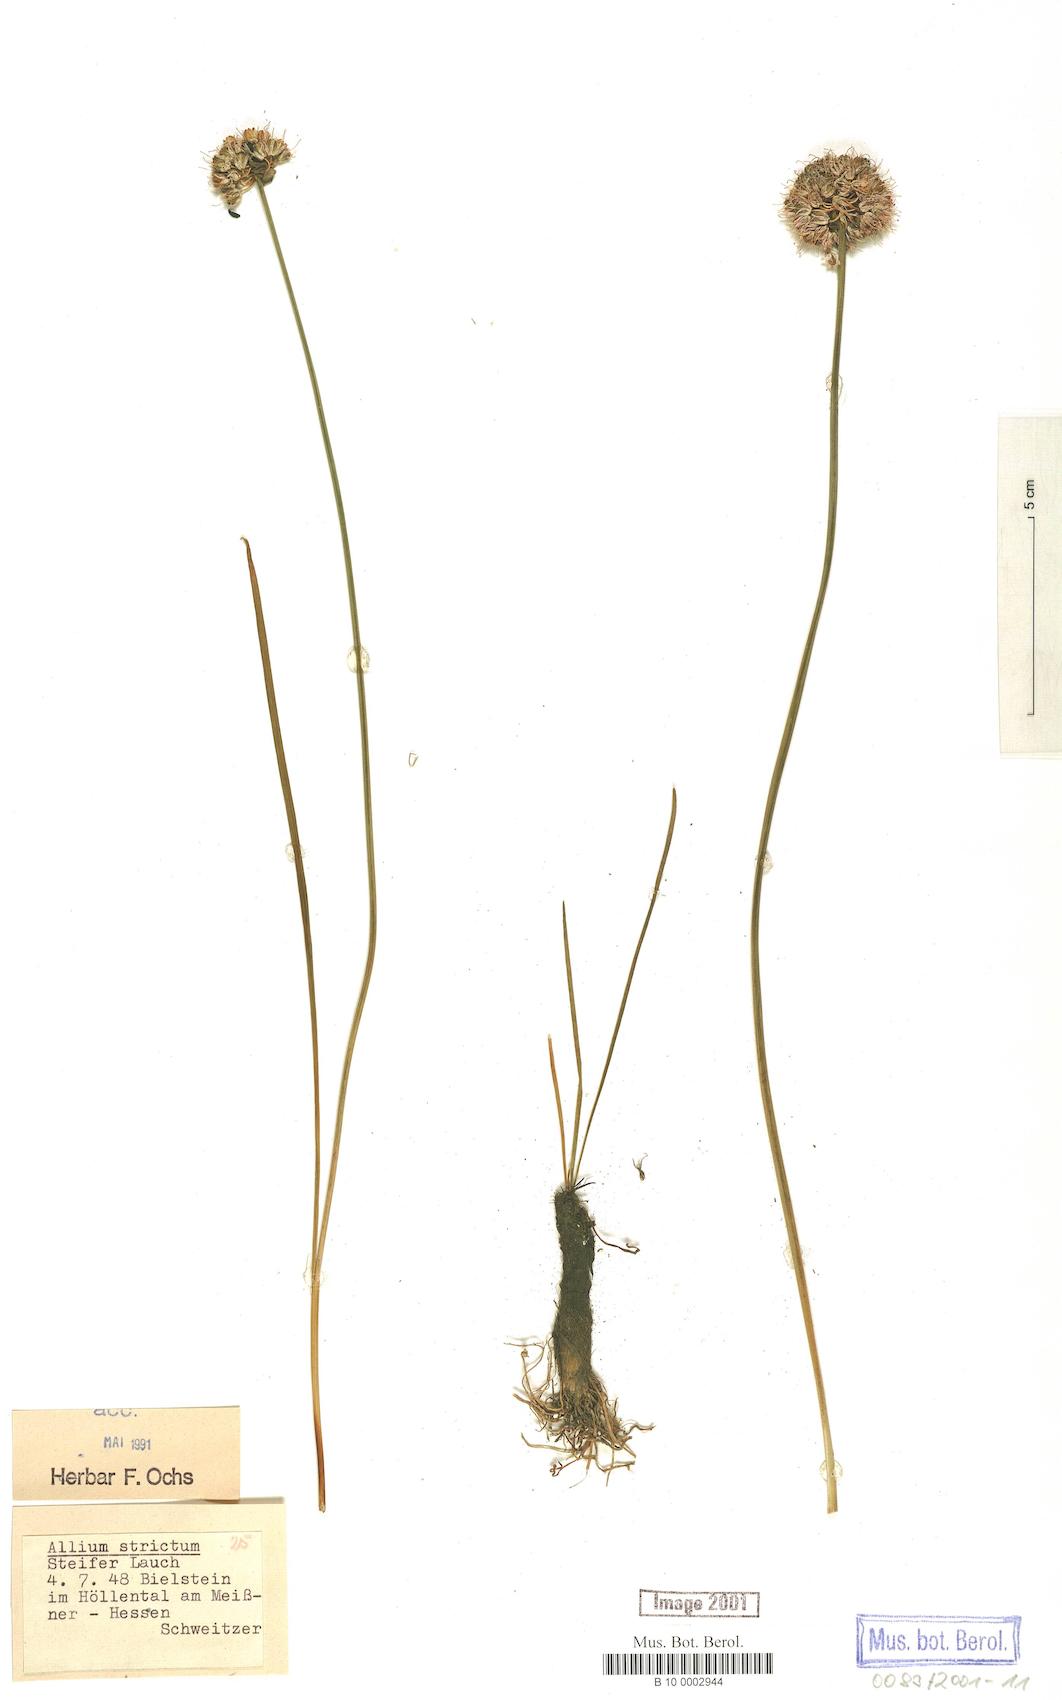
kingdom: Plantae
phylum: Tracheophyta
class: Liliopsida
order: Asparagales
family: Amaryllidaceae
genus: Allium
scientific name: Allium strictum
